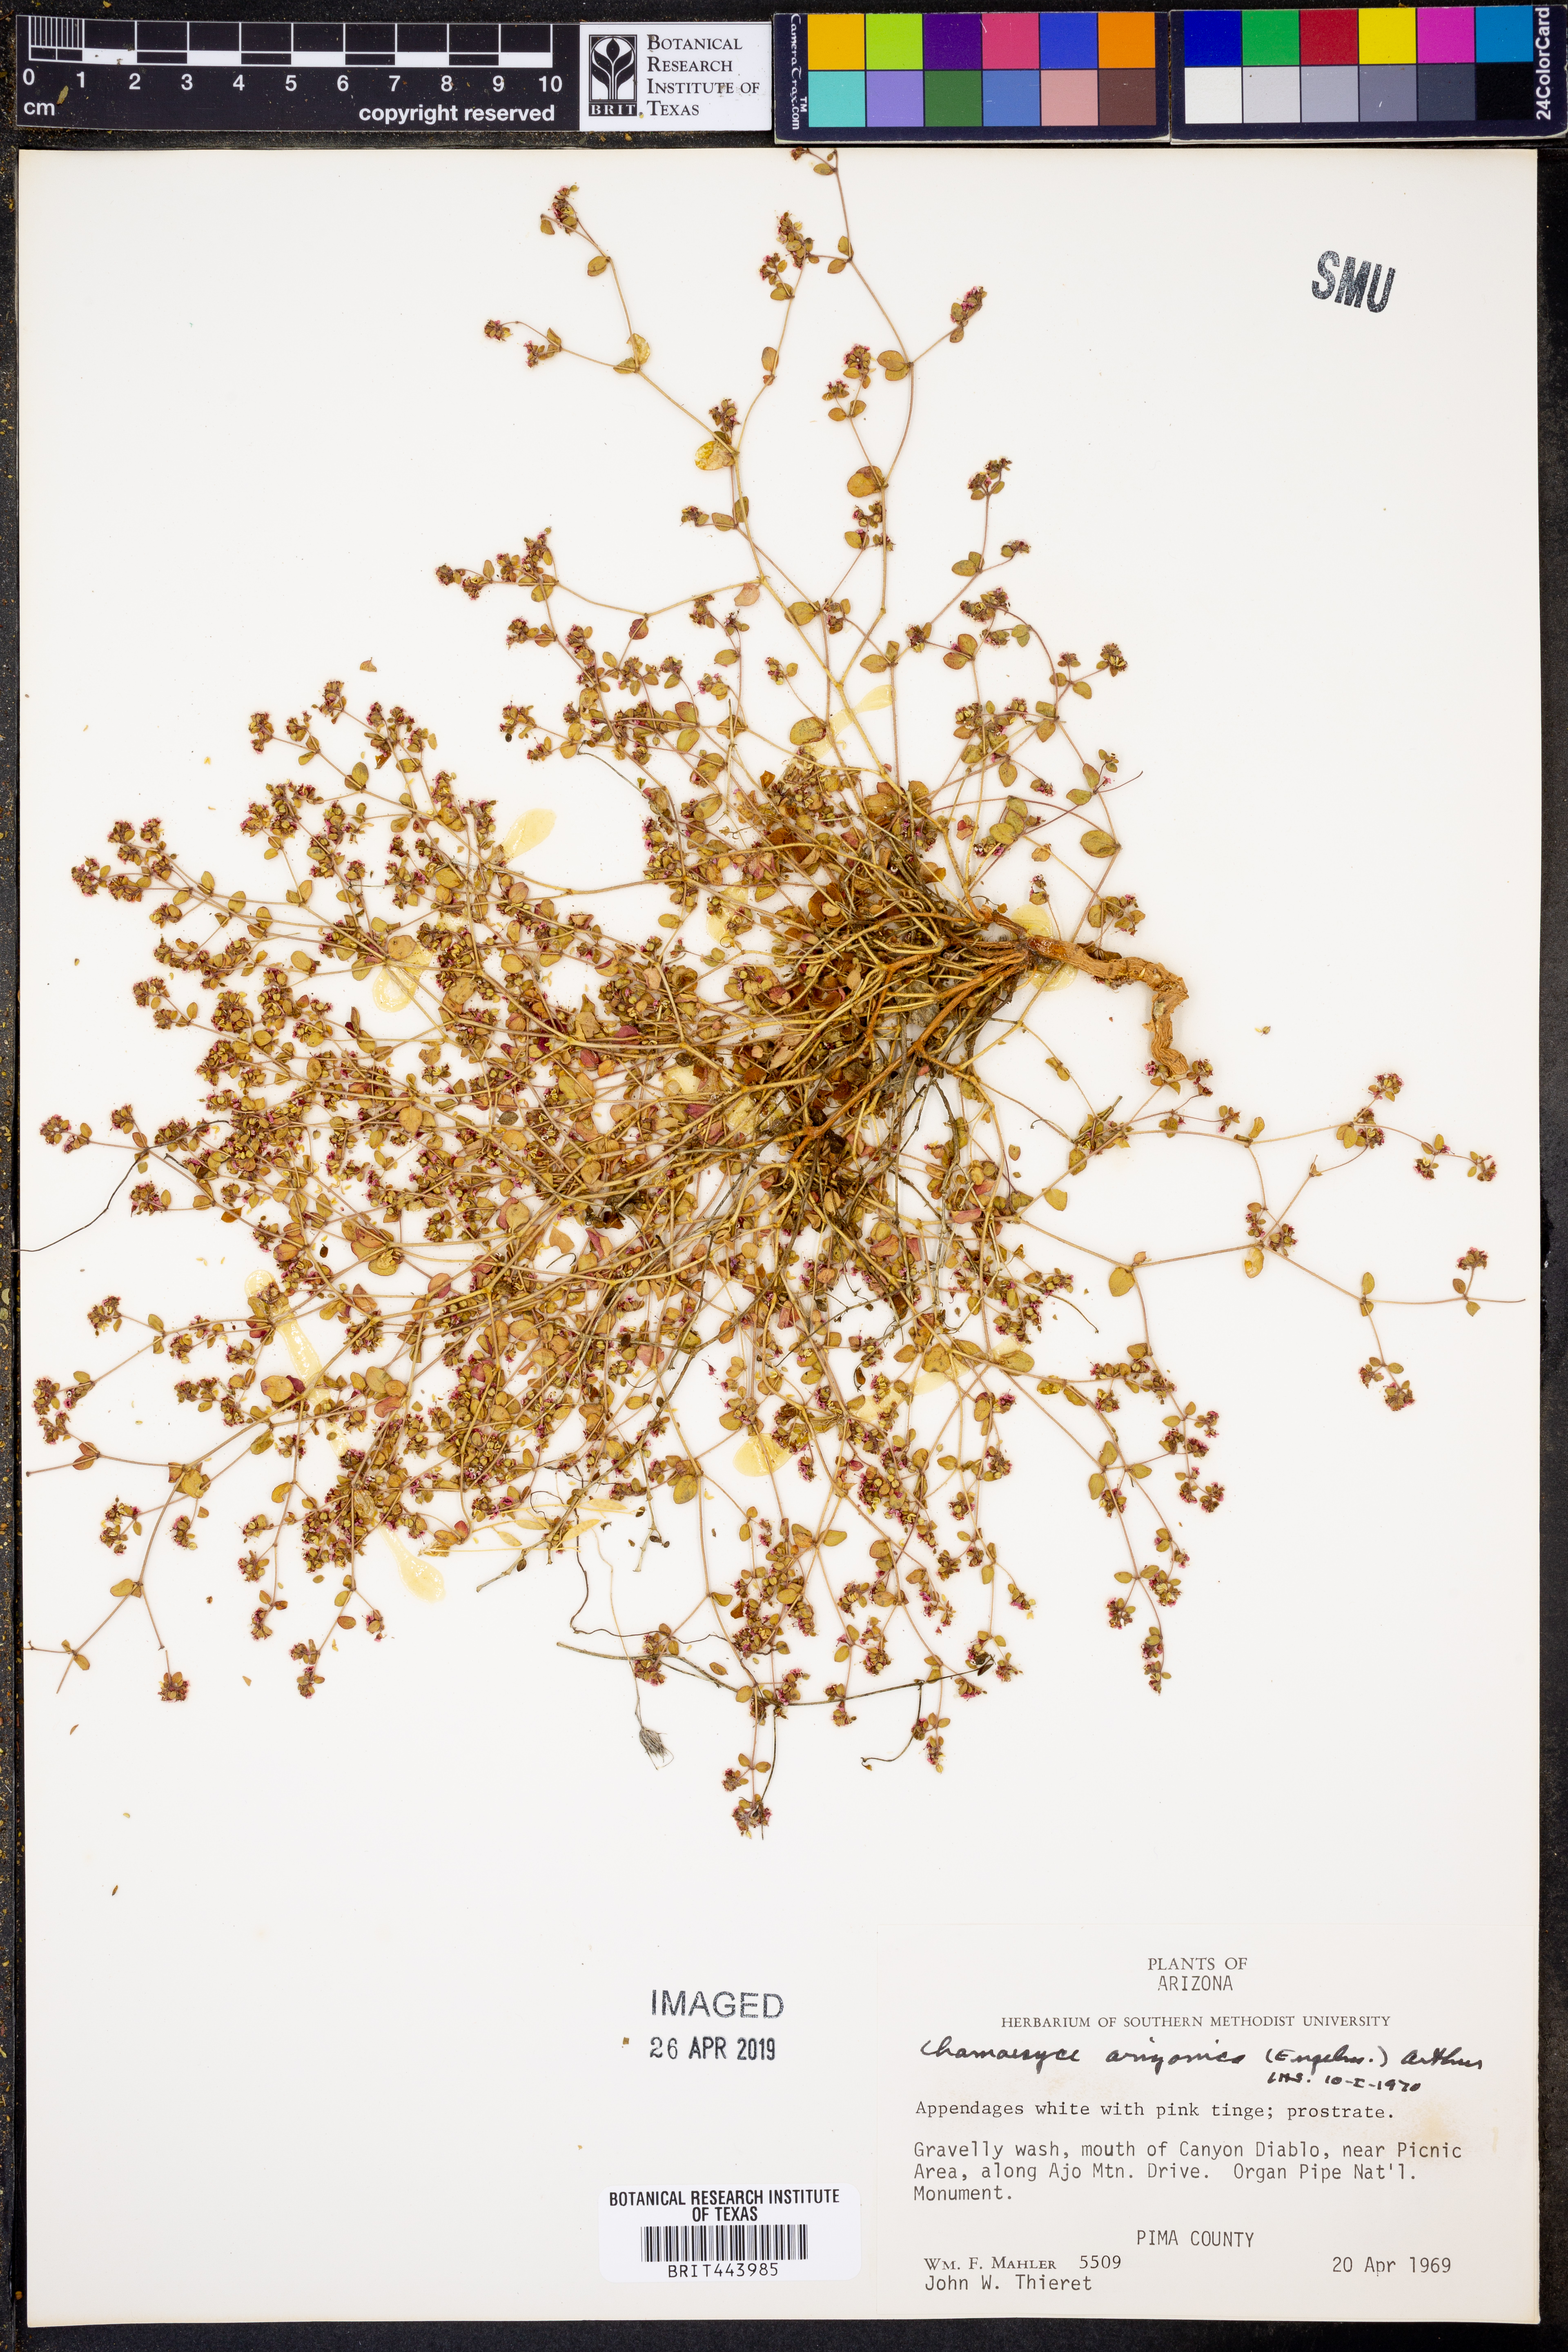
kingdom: Plantae
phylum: Tracheophyta
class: Magnoliopsida
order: Malpighiales
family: Euphorbiaceae
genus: Euphorbia
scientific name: Euphorbia arizonica
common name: Arizona spurge
